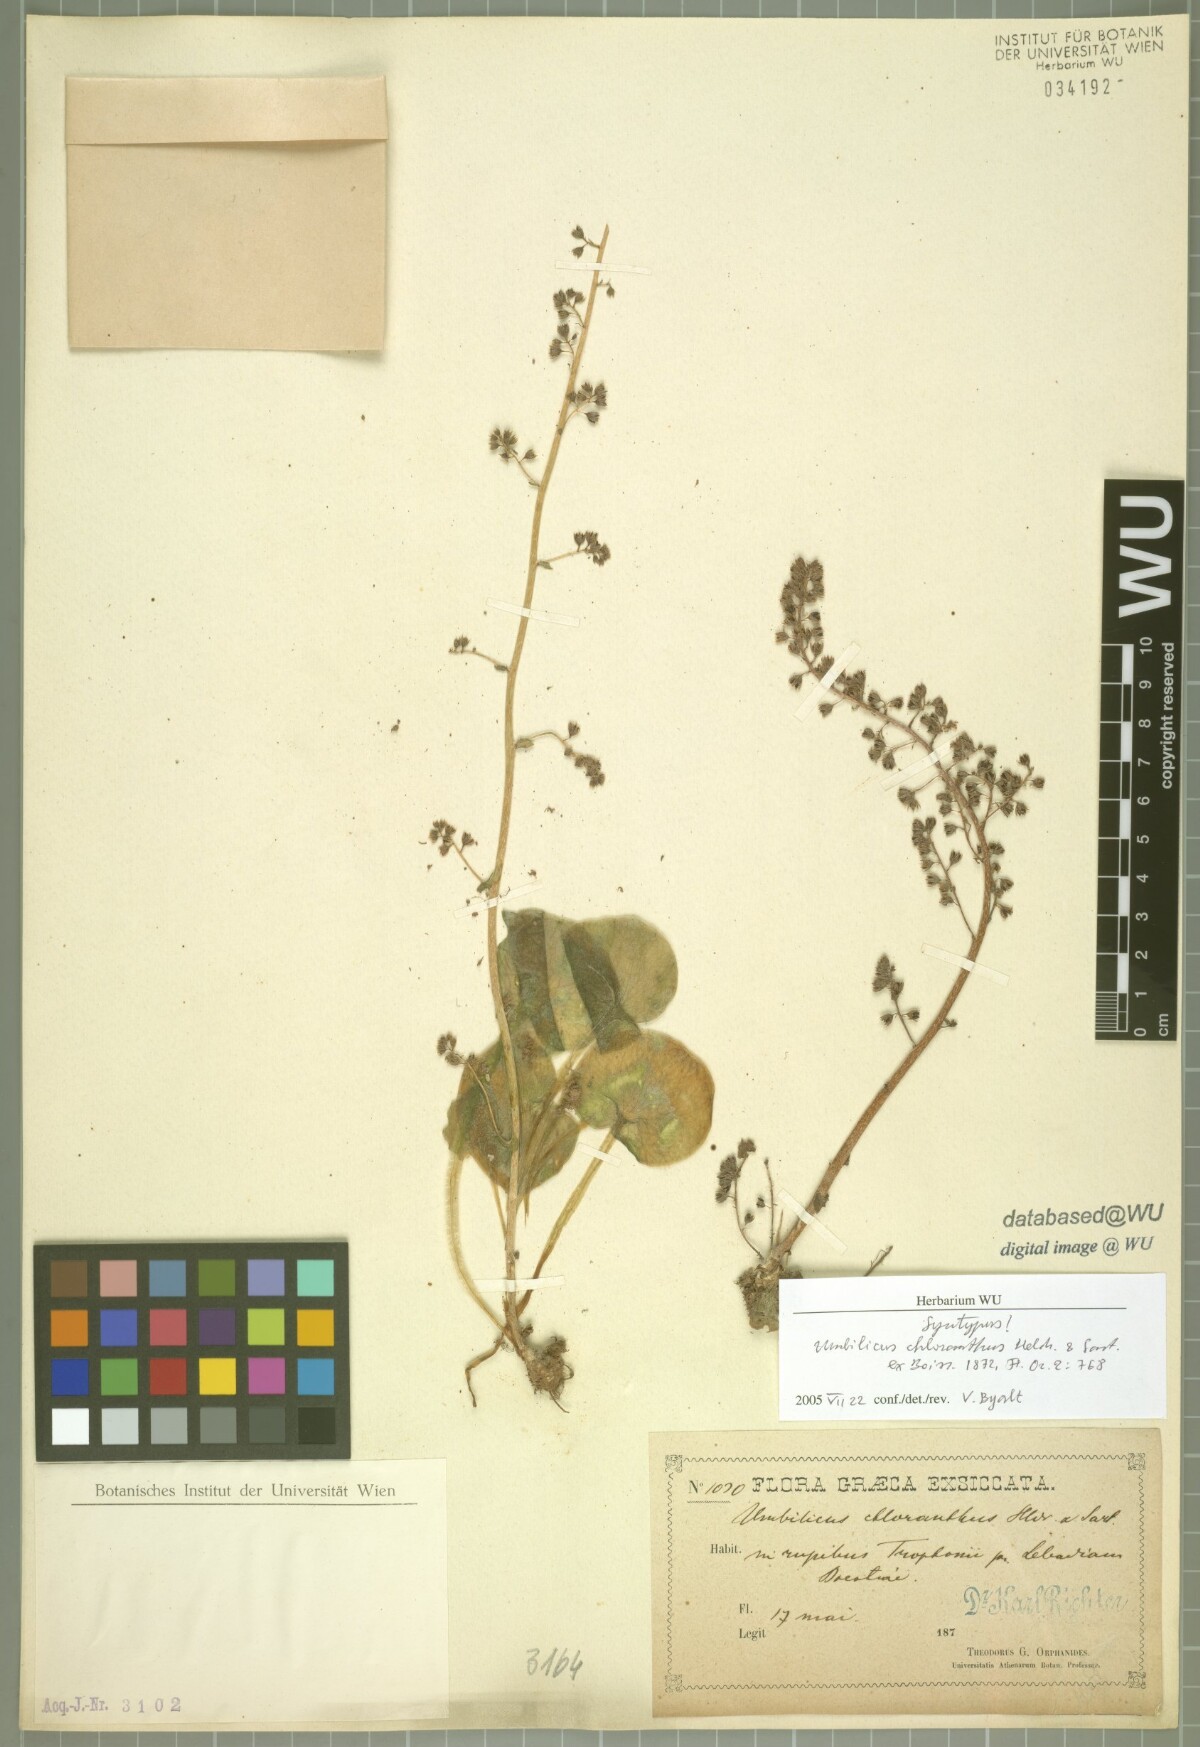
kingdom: Plantae
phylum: Tracheophyta
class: Magnoliopsida
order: Saxifragales
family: Crassulaceae
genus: Umbilicus
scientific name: Umbilicus chloranthus
